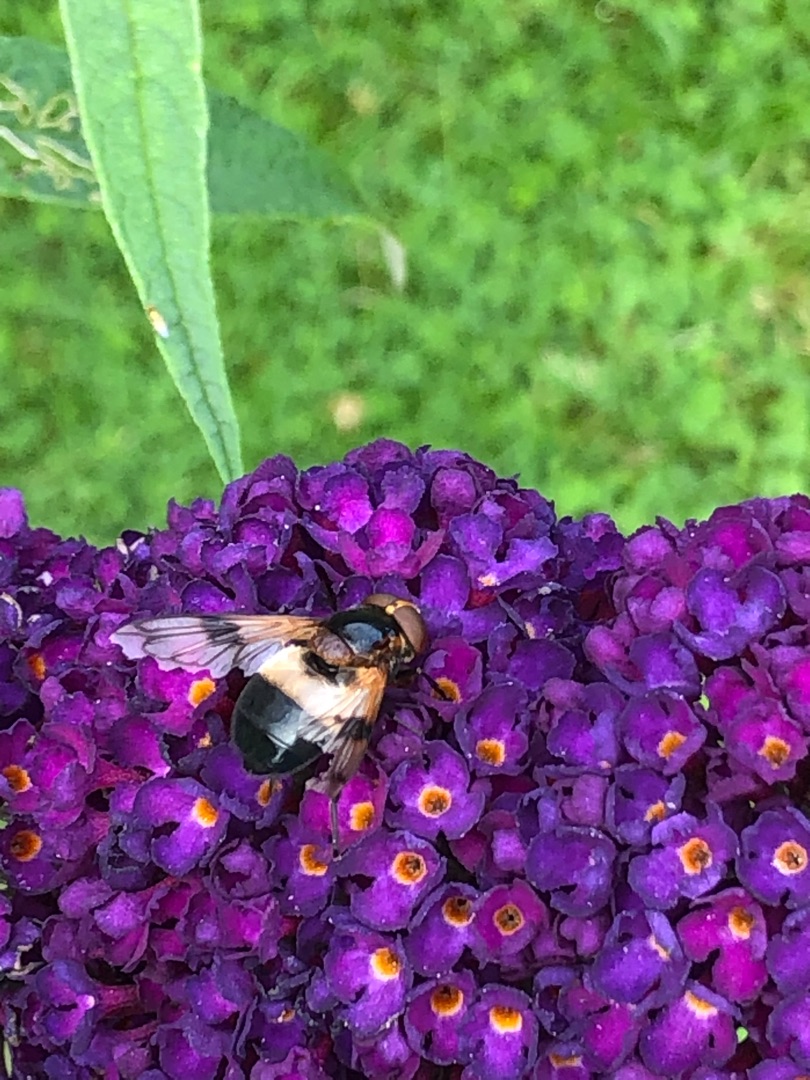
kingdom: Animalia
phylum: Arthropoda
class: Insecta
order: Diptera
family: Syrphidae
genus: Volucella
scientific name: Volucella pellucens
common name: Hvidbåndet humlesvirreflue
